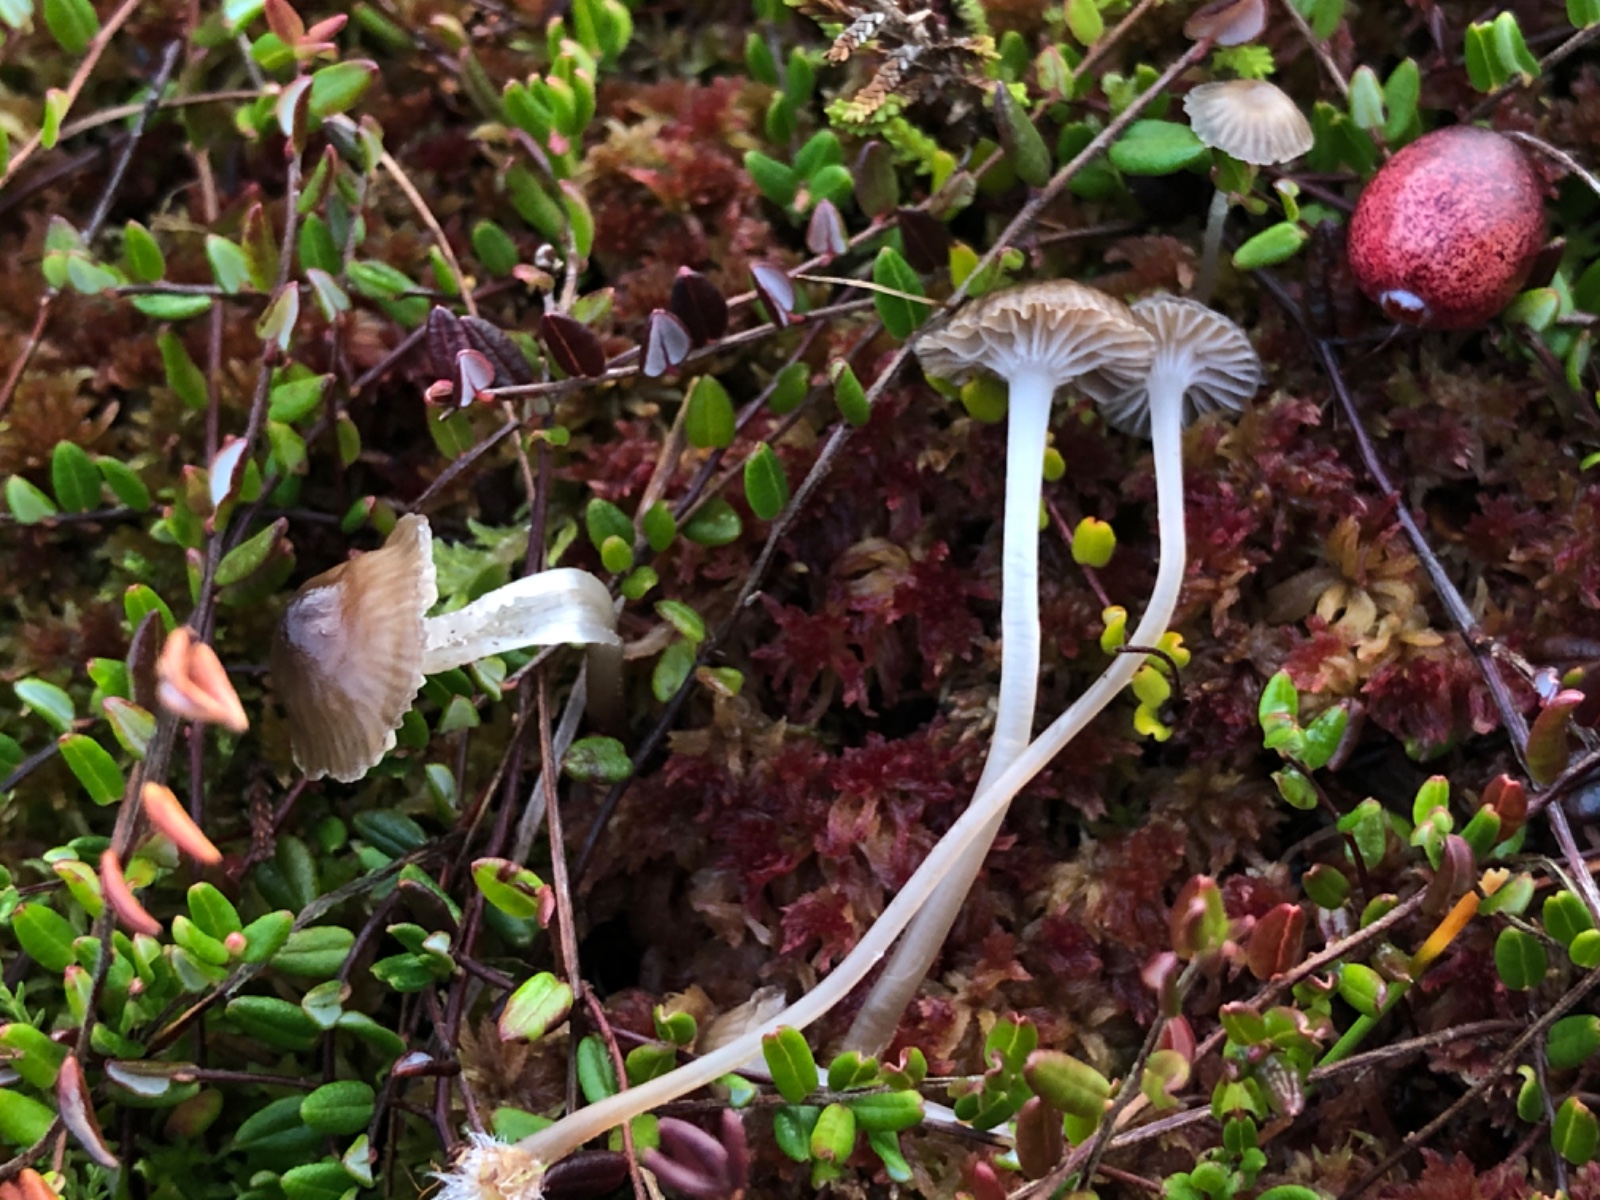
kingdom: Fungi
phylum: Basidiomycota
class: Agaricomycetes
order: Agaricales
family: Mycenaceae
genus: Mycena
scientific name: Mycena concolor
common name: tørvemos-huesvamp
